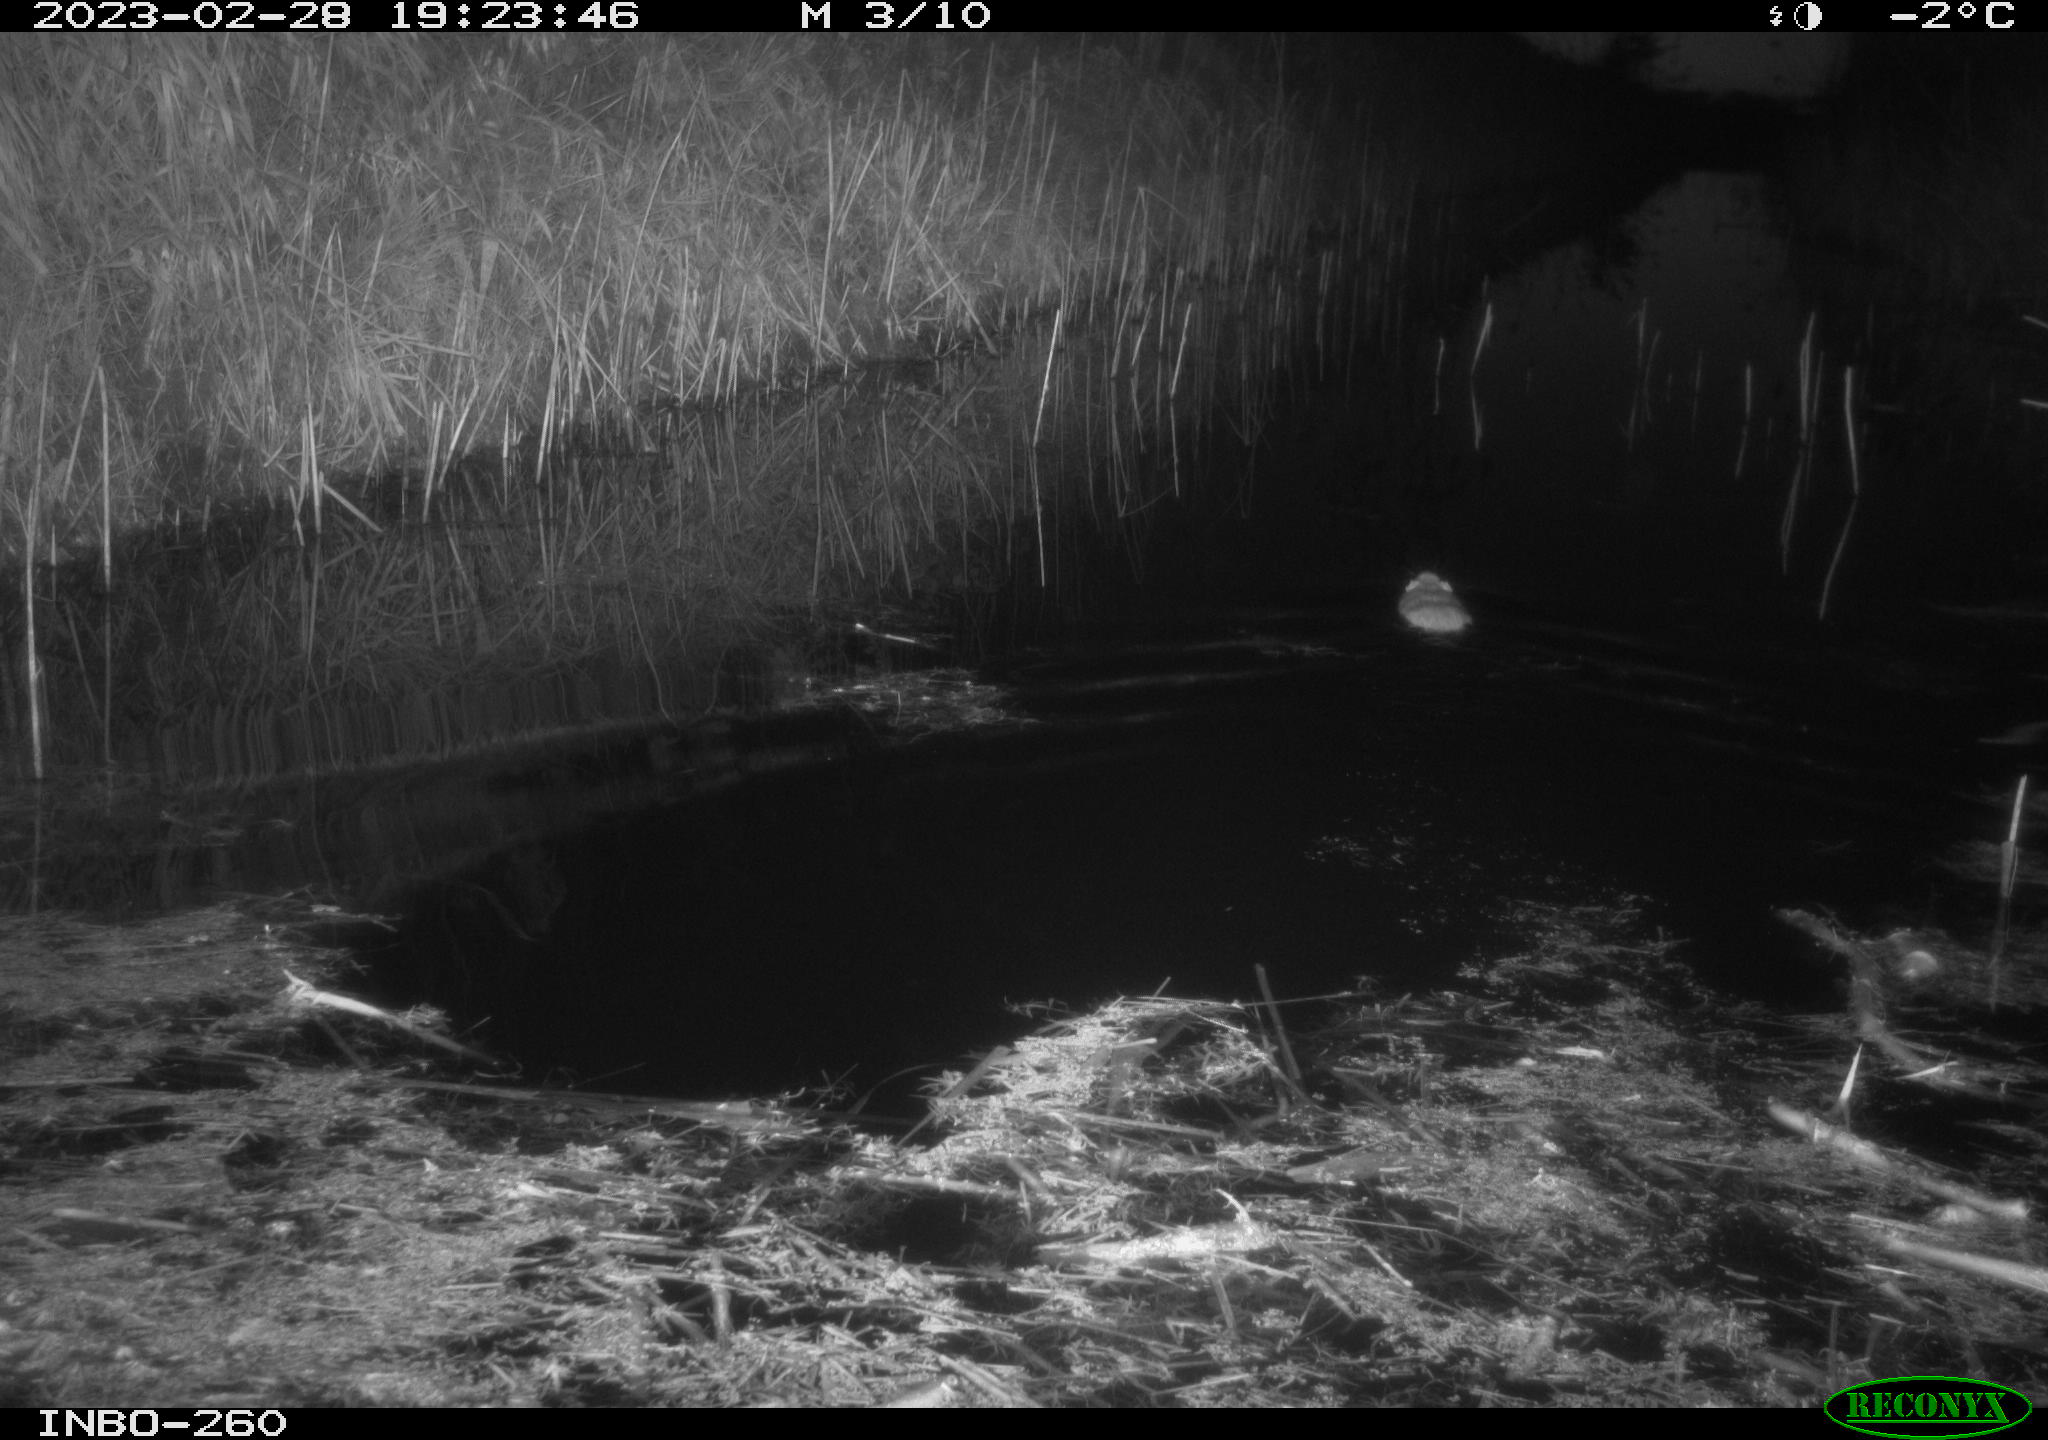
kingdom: Animalia
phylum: Chordata
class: Mammalia
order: Rodentia
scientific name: Rodentia
